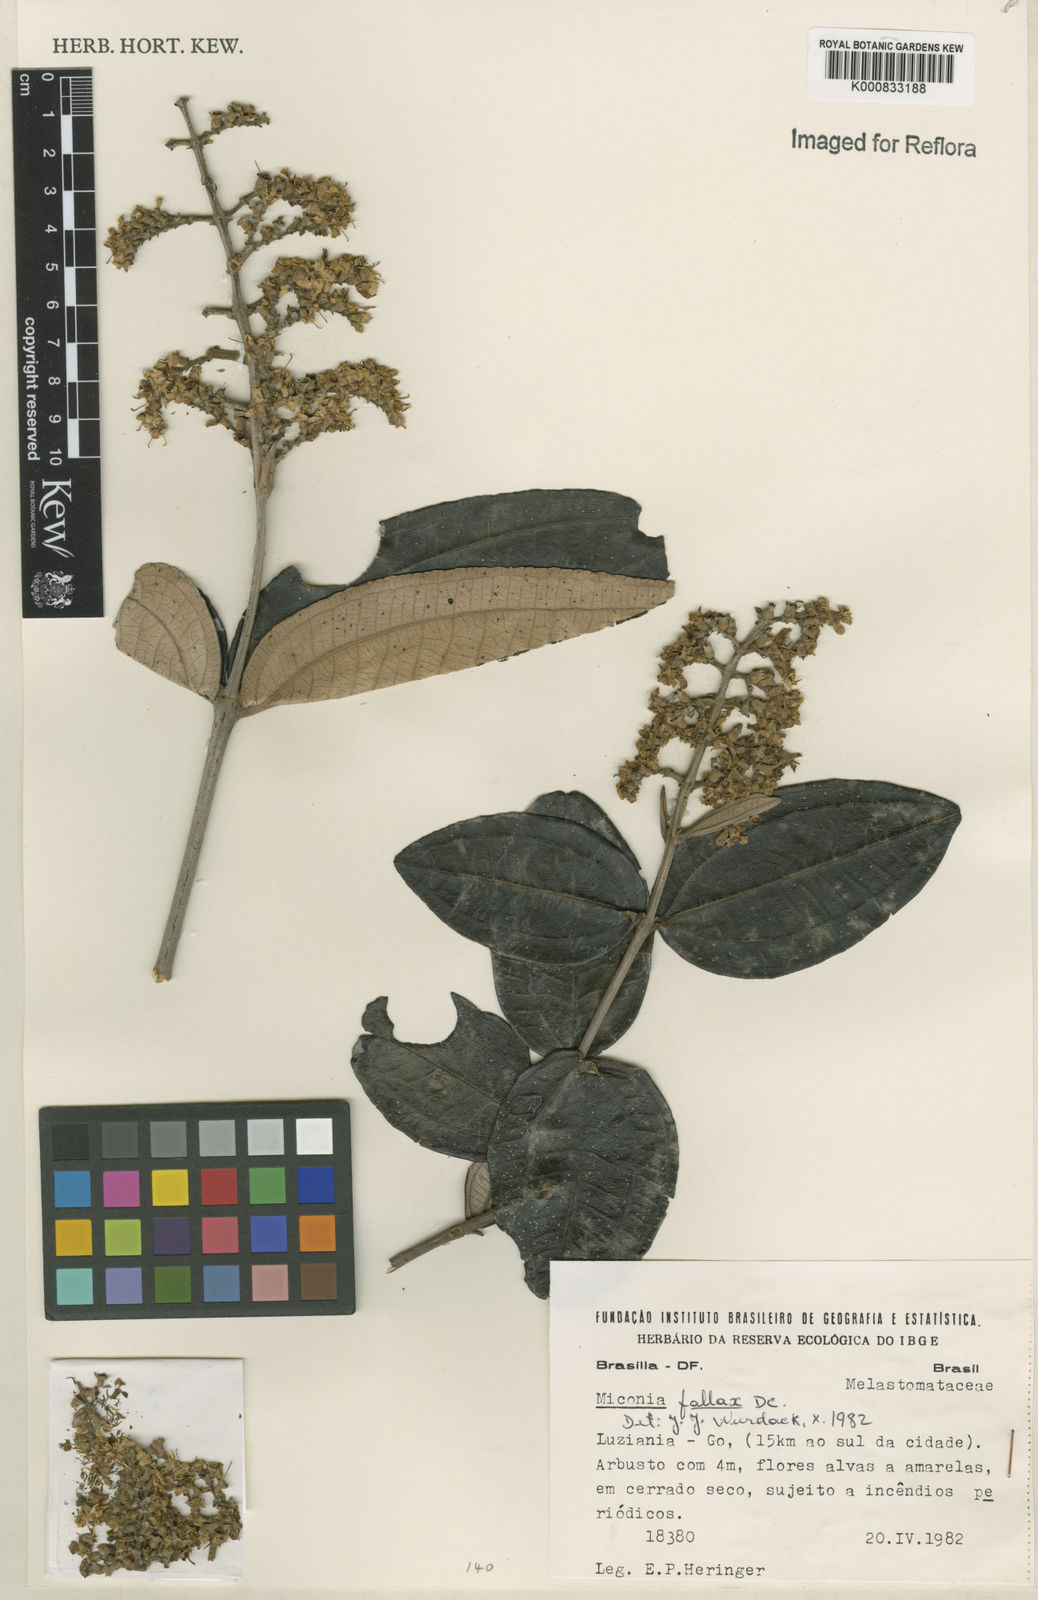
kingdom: Plantae
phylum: Tracheophyta
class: Magnoliopsida
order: Myrtales
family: Melastomataceae
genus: Miconia
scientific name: Miconia fallax
